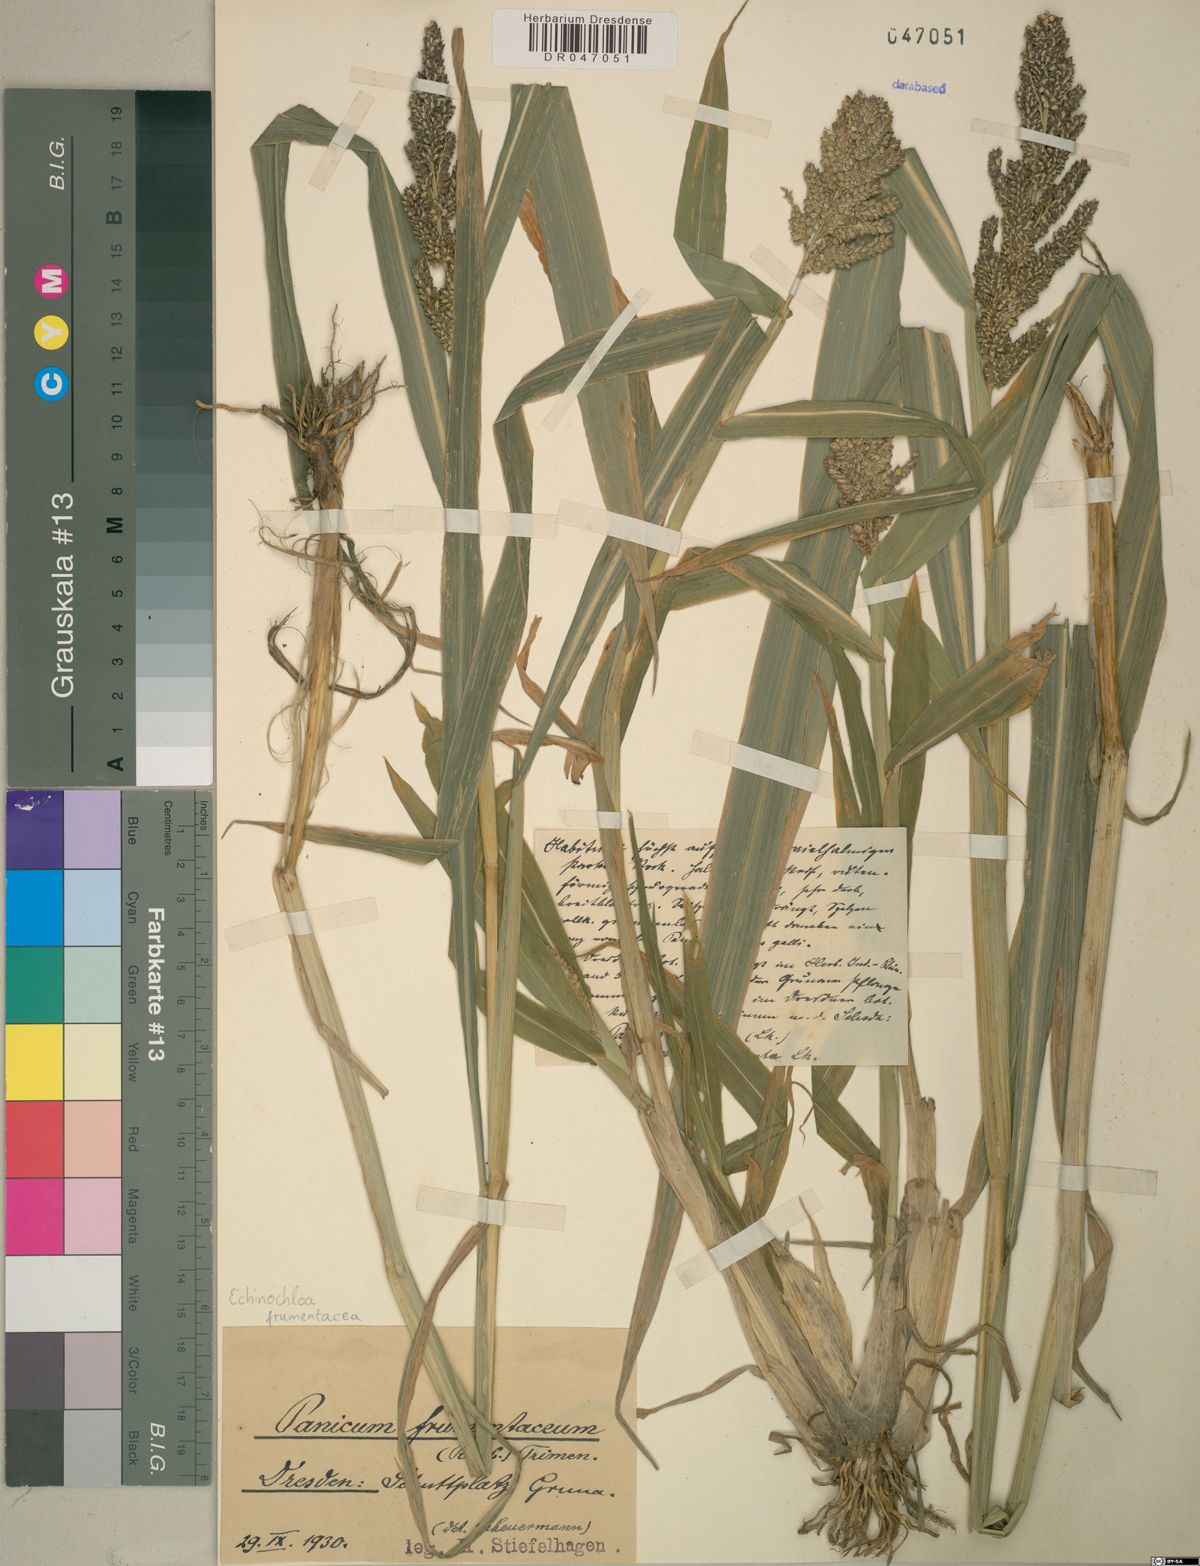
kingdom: Plantae
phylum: Tracheophyta
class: Liliopsida
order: Poales
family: Poaceae
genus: Echinochloa
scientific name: Echinochloa frumentacea
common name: Billion-dollar grass
